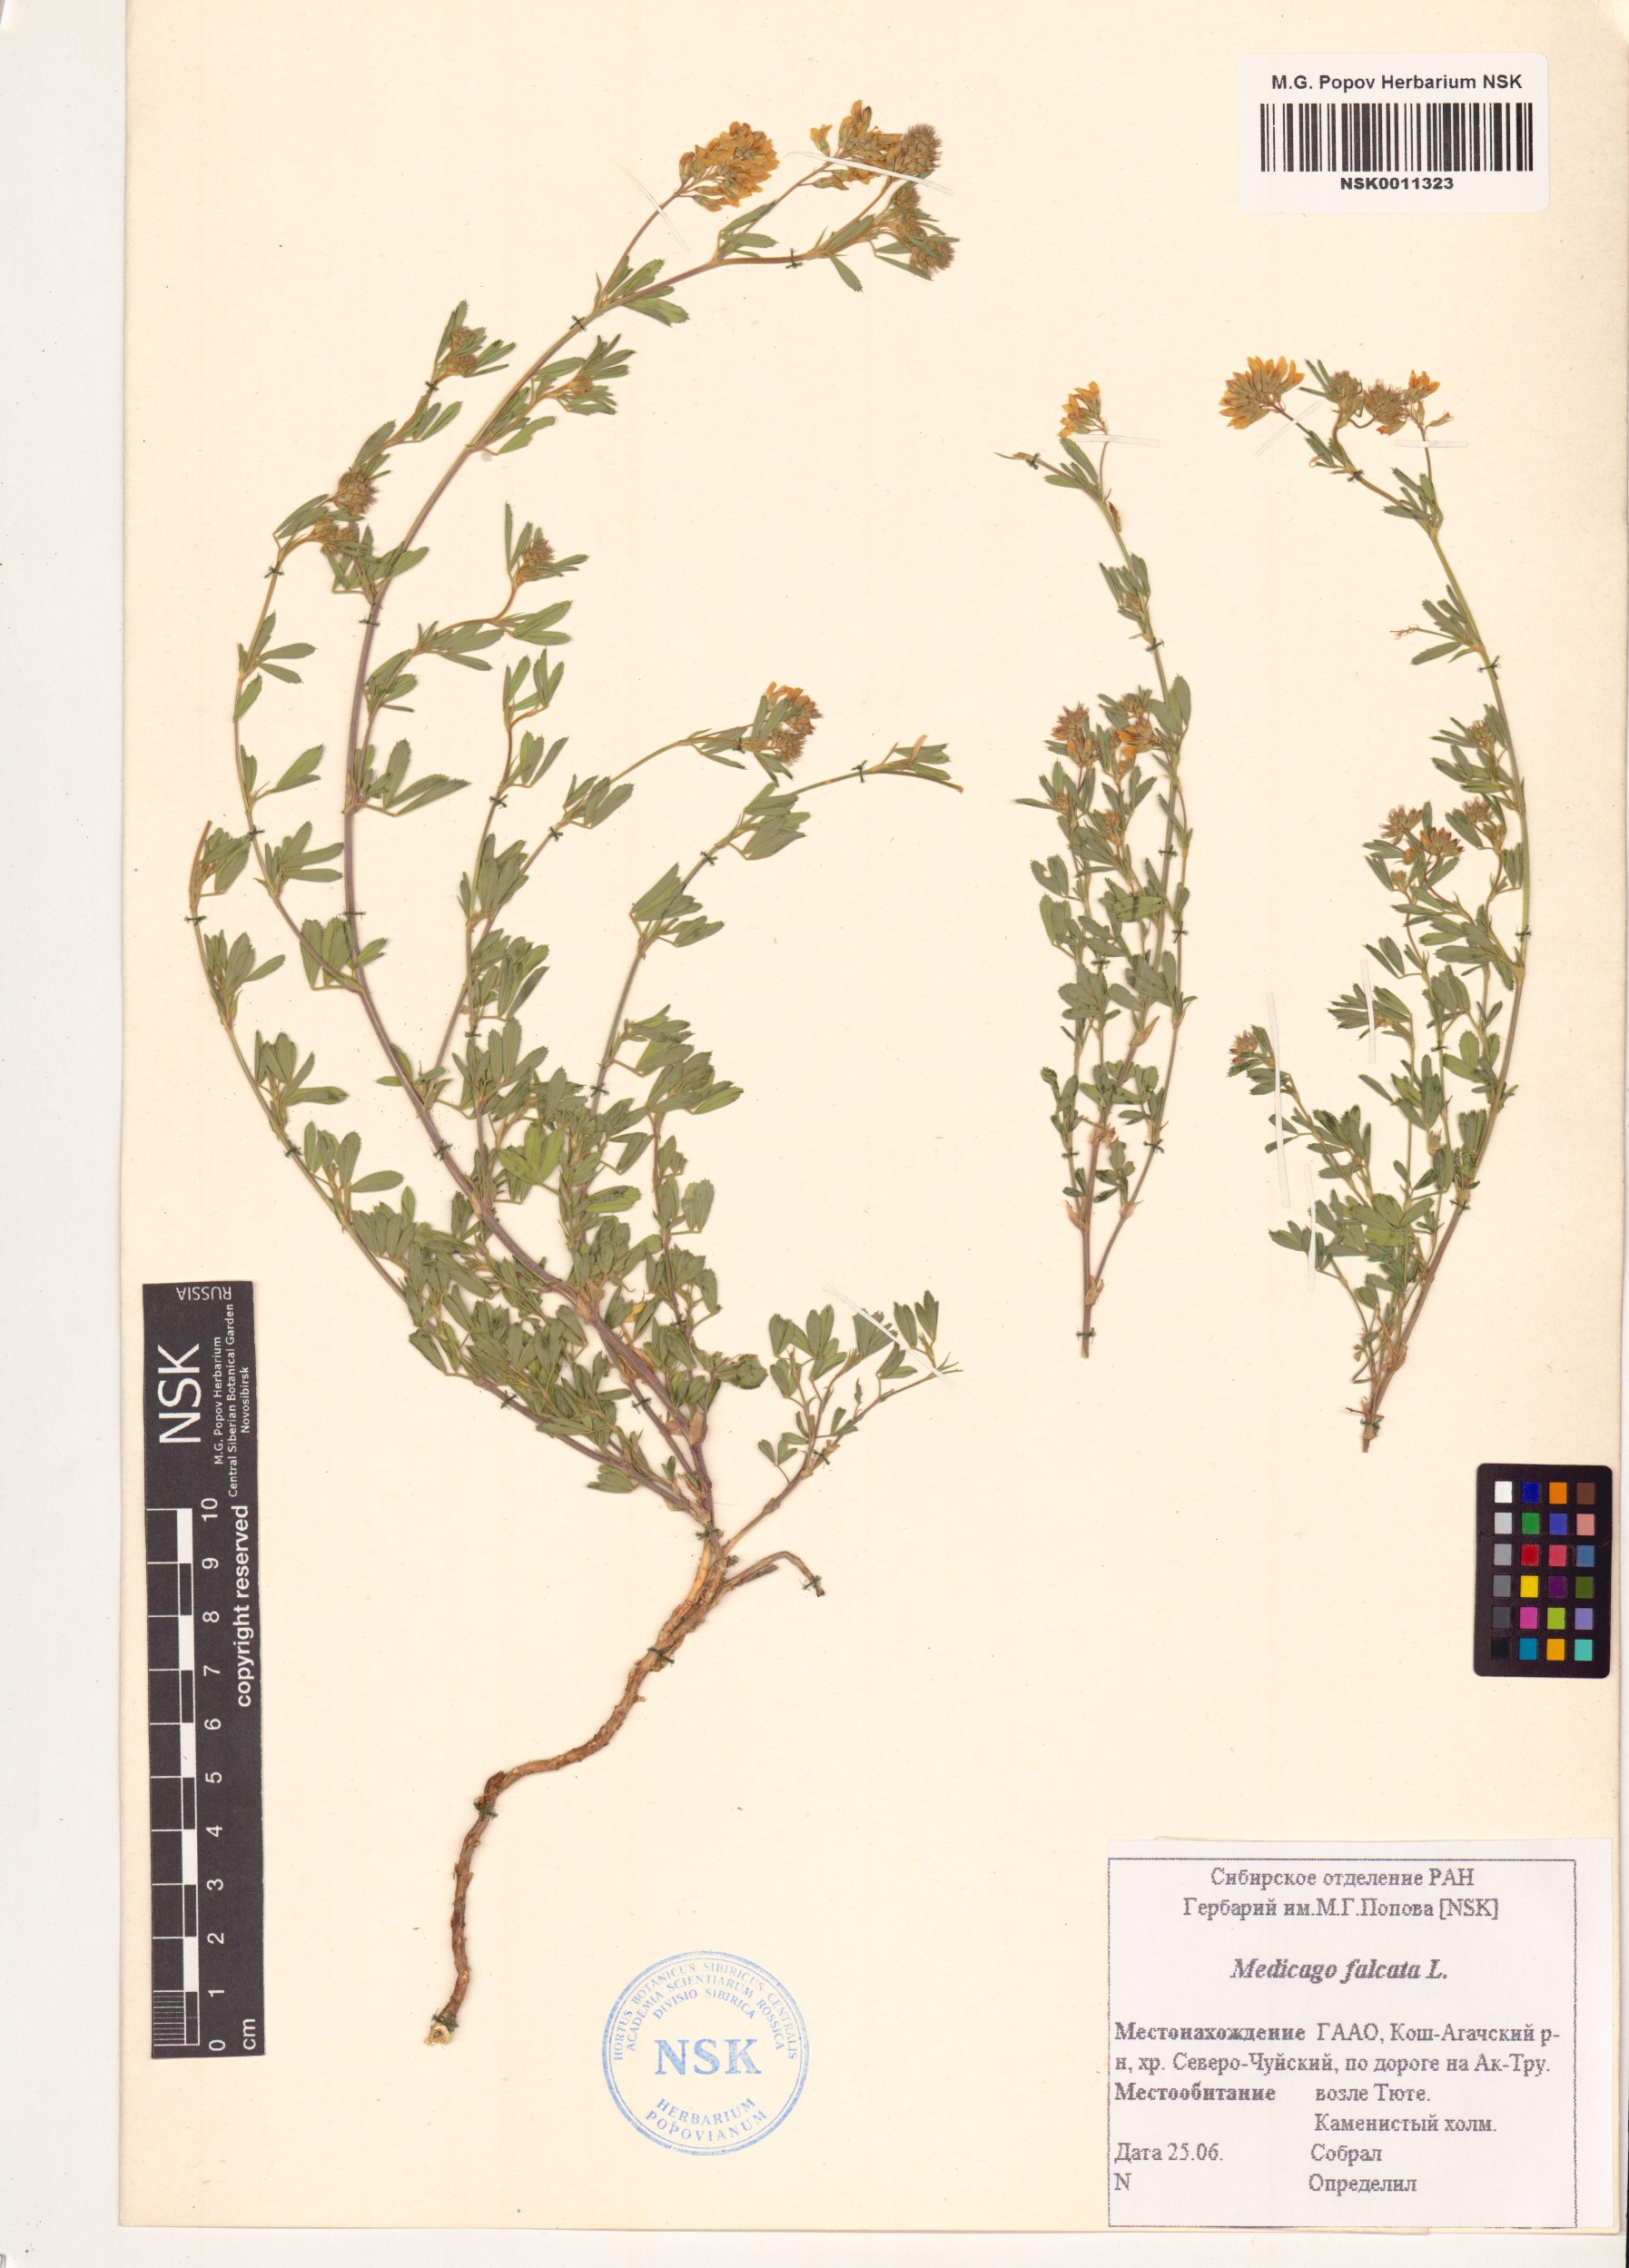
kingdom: Plantae
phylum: Tracheophyta
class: Magnoliopsida
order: Fabales
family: Fabaceae
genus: Medicago
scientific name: Medicago falcata
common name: Sickle medick
